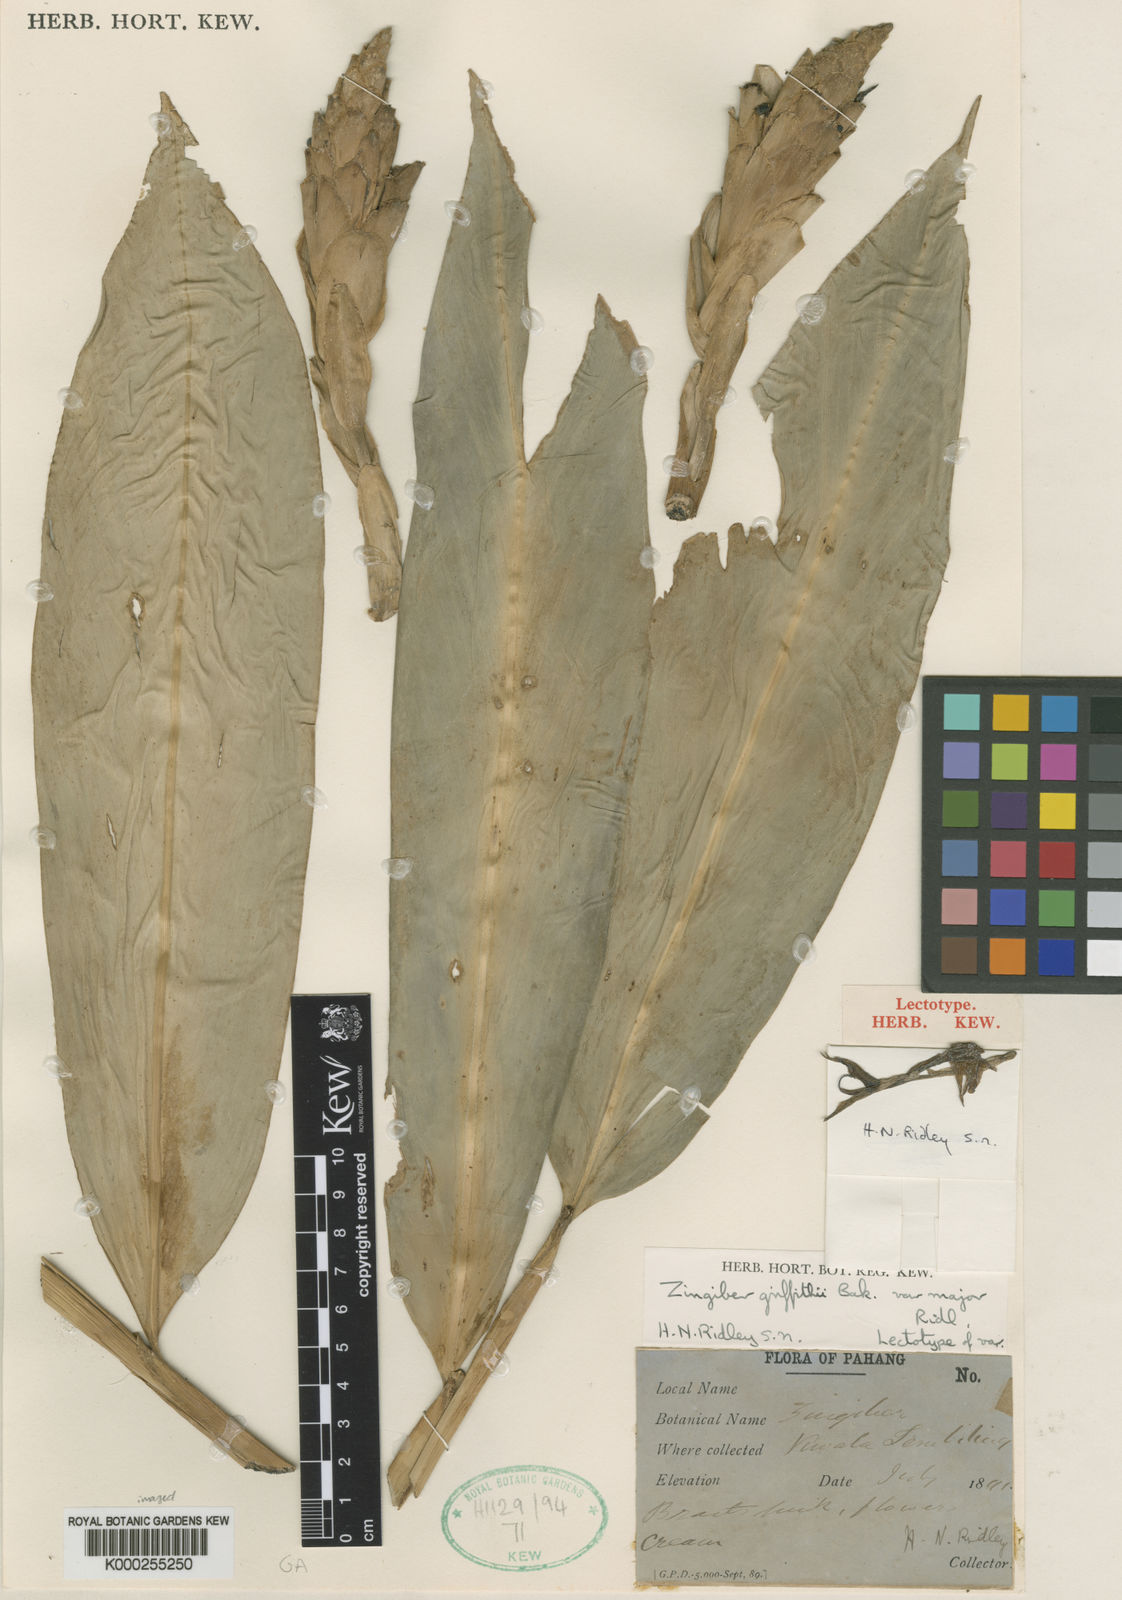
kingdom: Plantae
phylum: Tracheophyta
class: Liliopsida
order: Zingiberales
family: Zingiberaceae
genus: Zingiber
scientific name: Zingiber puberulum
